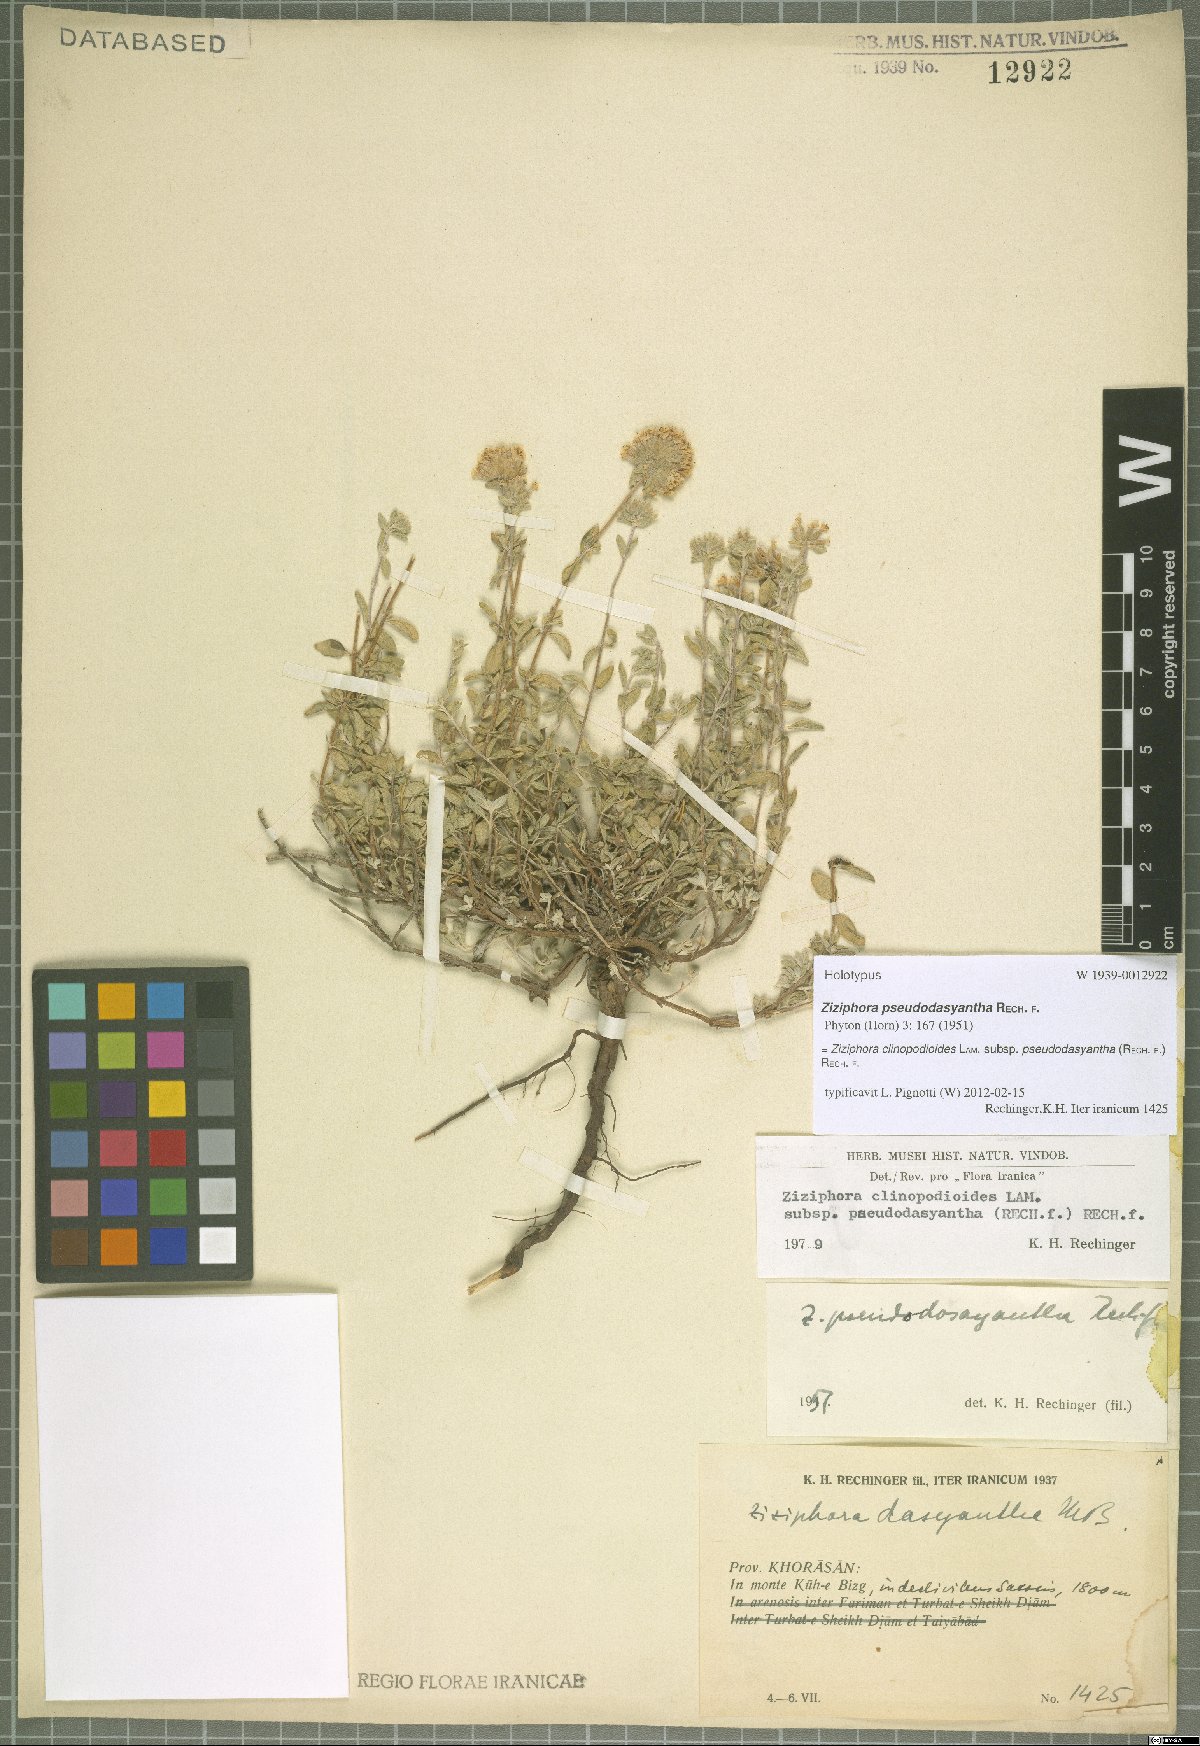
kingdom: Plantae
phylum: Tracheophyta
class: Magnoliopsida
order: Lamiales
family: Lamiaceae
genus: Ziziphora
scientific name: Ziziphora clinopodioides
